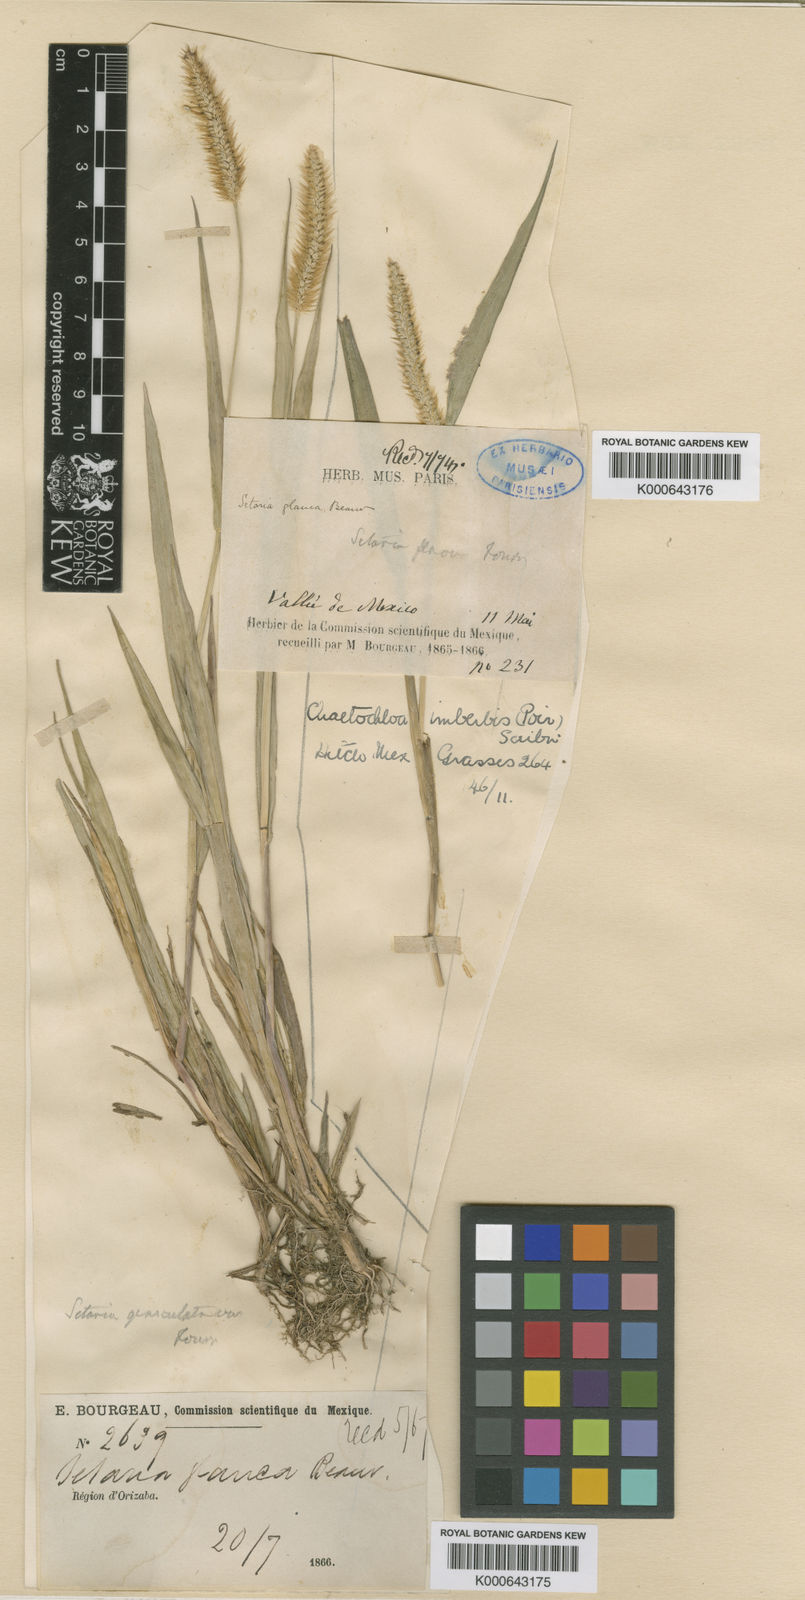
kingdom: Plantae
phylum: Tracheophyta
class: Liliopsida
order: Poales
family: Poaceae
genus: Setaria
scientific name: Setaria
